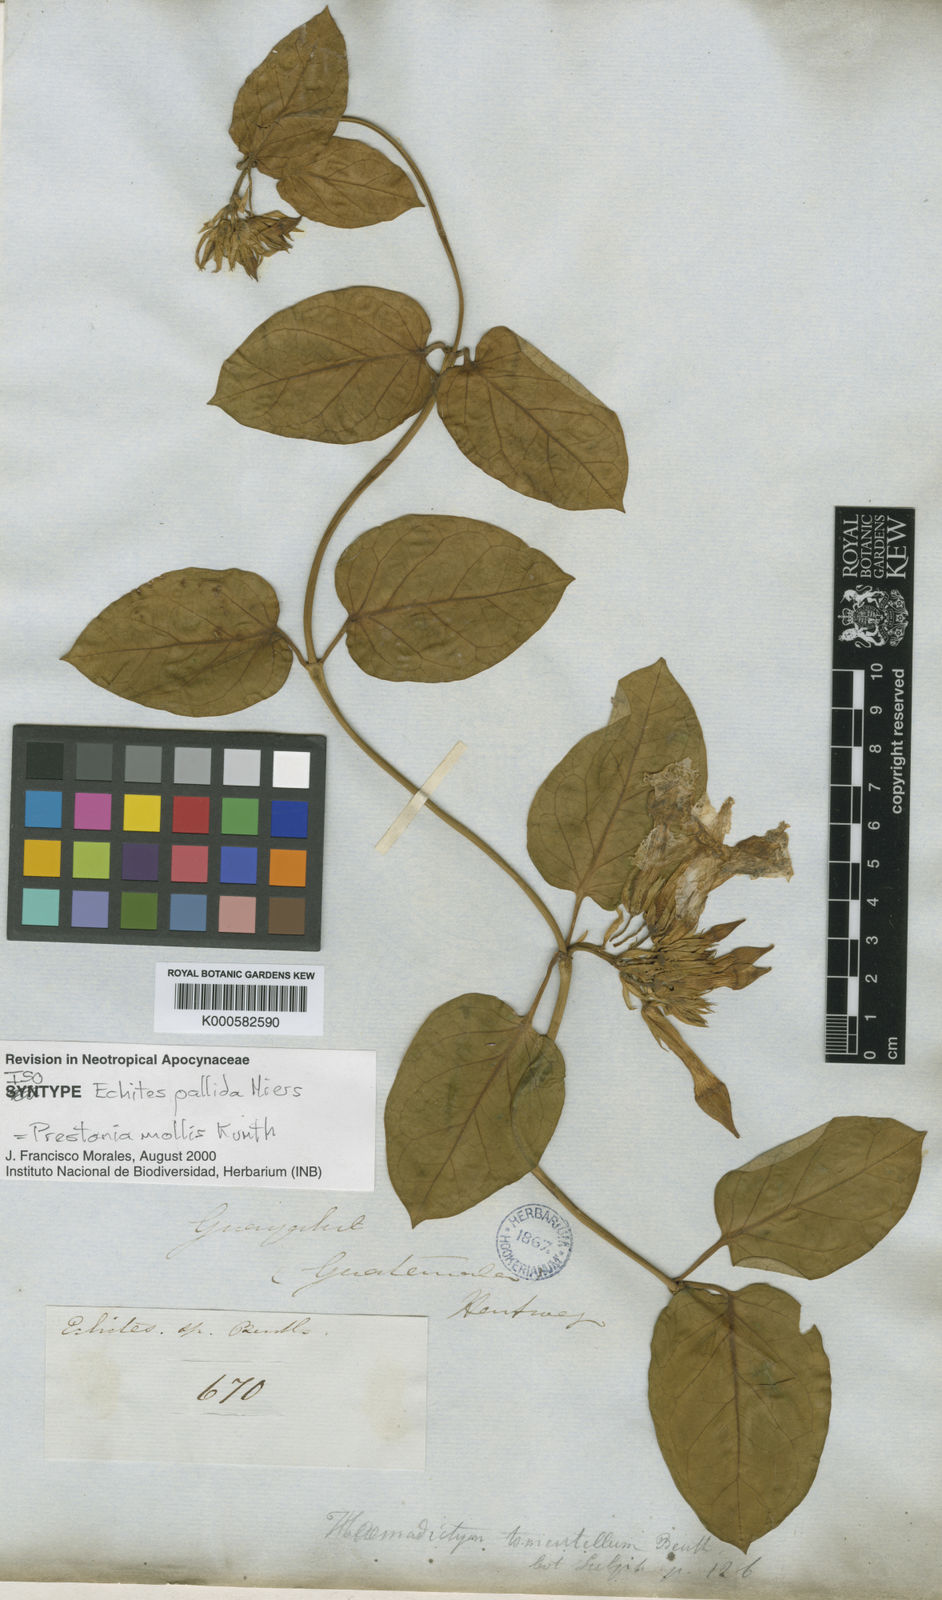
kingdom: Plantae
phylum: Tracheophyta
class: Magnoliopsida
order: Gentianales
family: Apocynaceae
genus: Prestonia
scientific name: Prestonia mollis
